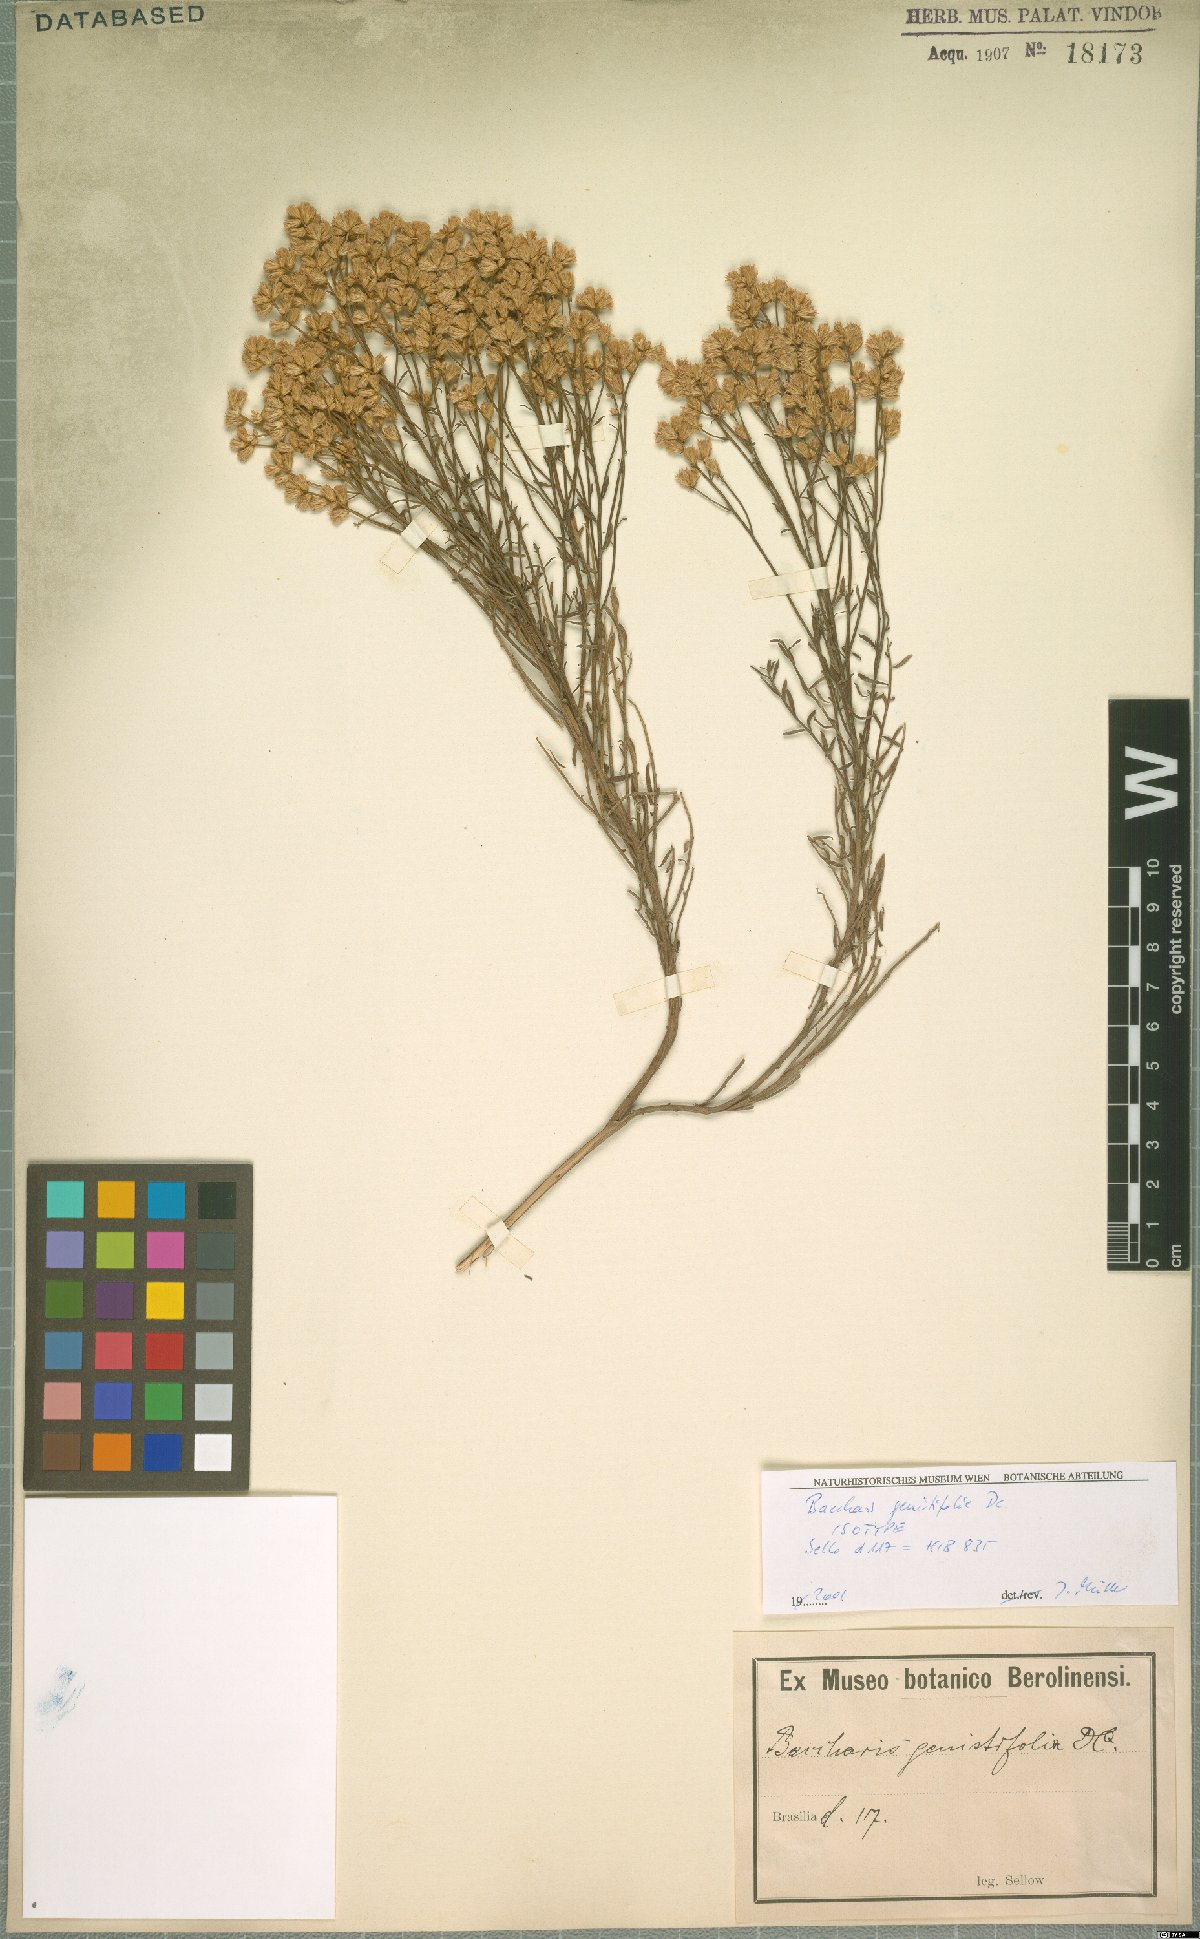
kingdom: Plantae
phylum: Tracheophyta
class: Magnoliopsida
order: Asterales
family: Asteraceae
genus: Baccharis
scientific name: Baccharis genistifolia
